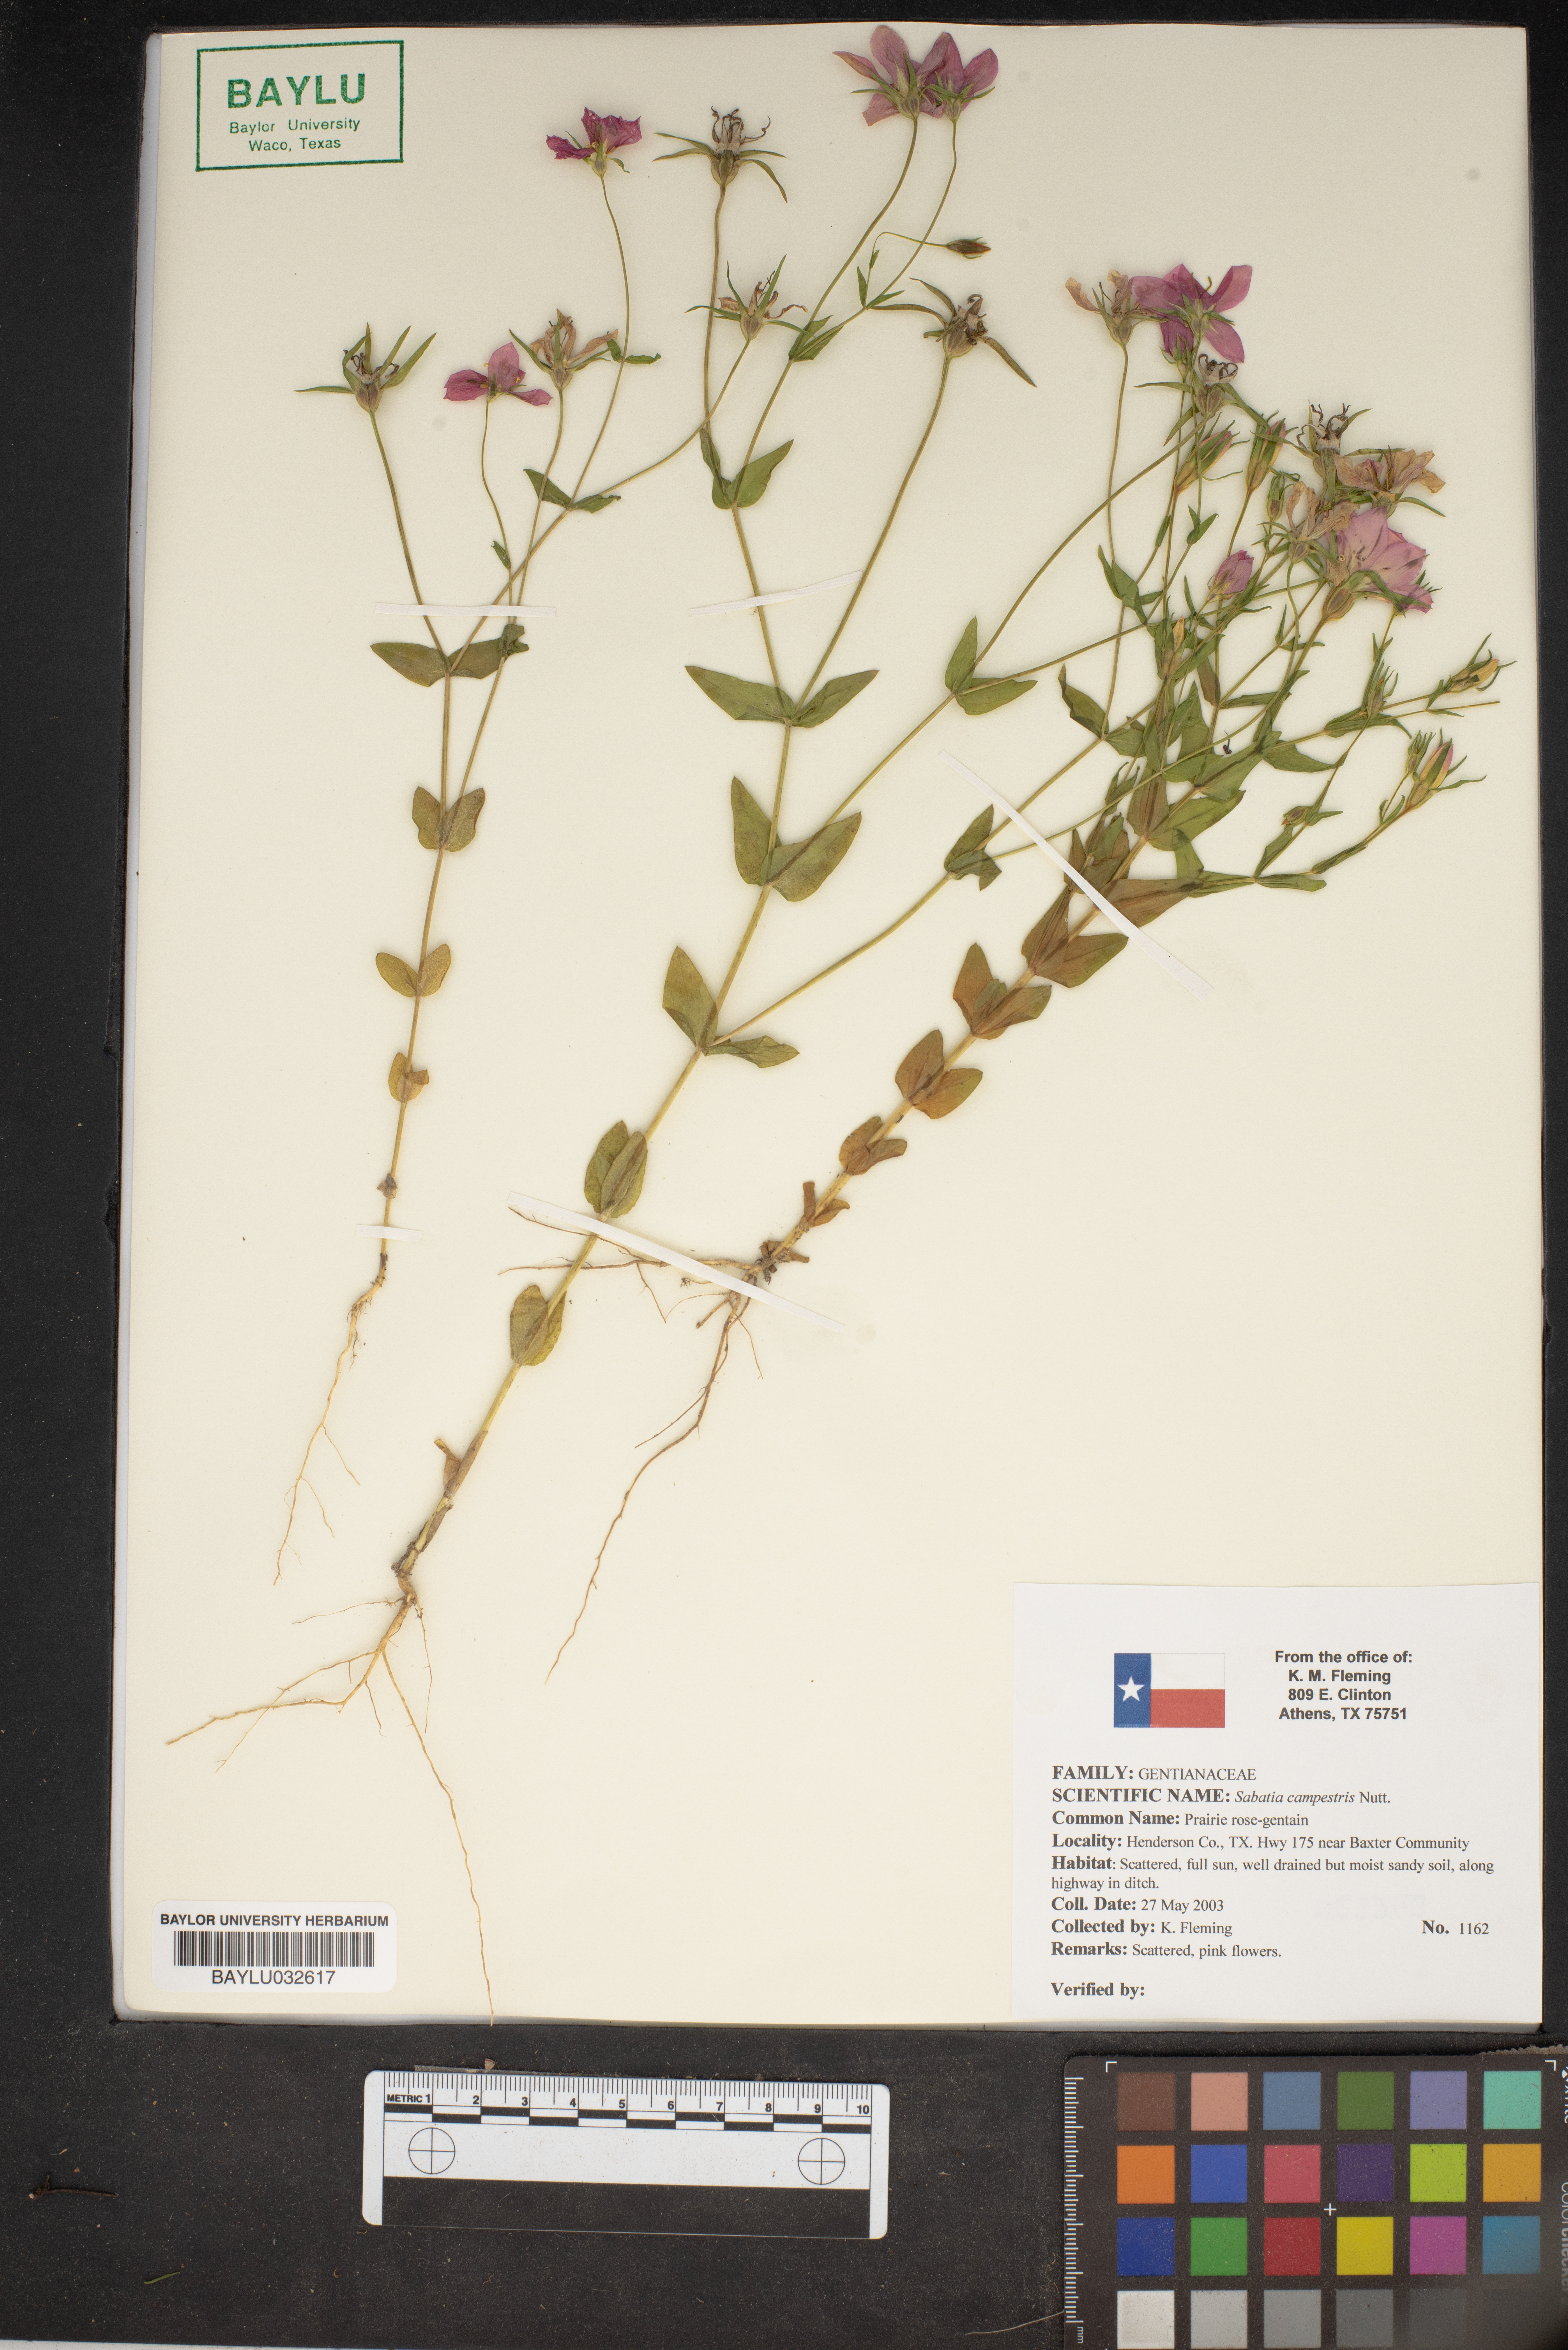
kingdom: Plantae
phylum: Tracheophyta
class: Magnoliopsida
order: Gentianales
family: Gentianaceae
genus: Sabatia
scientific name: Sabatia campestris
